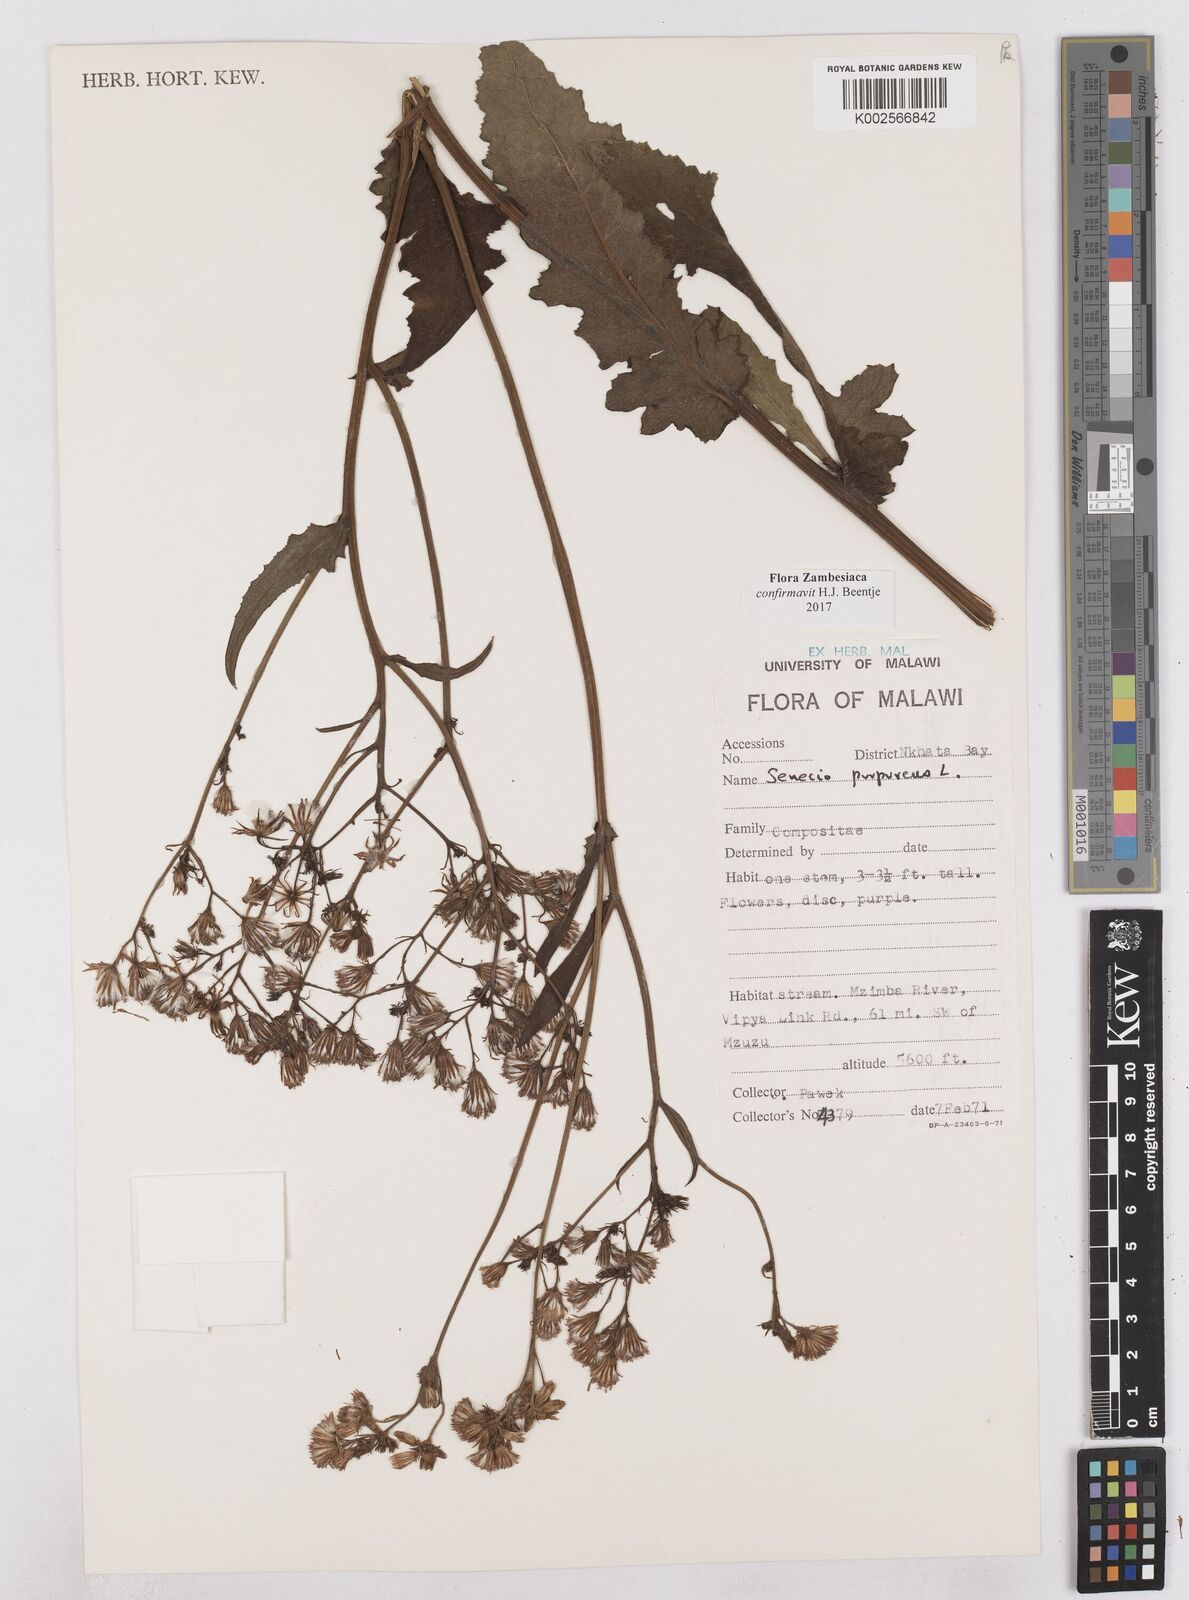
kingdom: Plantae
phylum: Tracheophyta
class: Magnoliopsida
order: Asterales
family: Asteraceae
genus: Senecio
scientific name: Senecio purpureus
